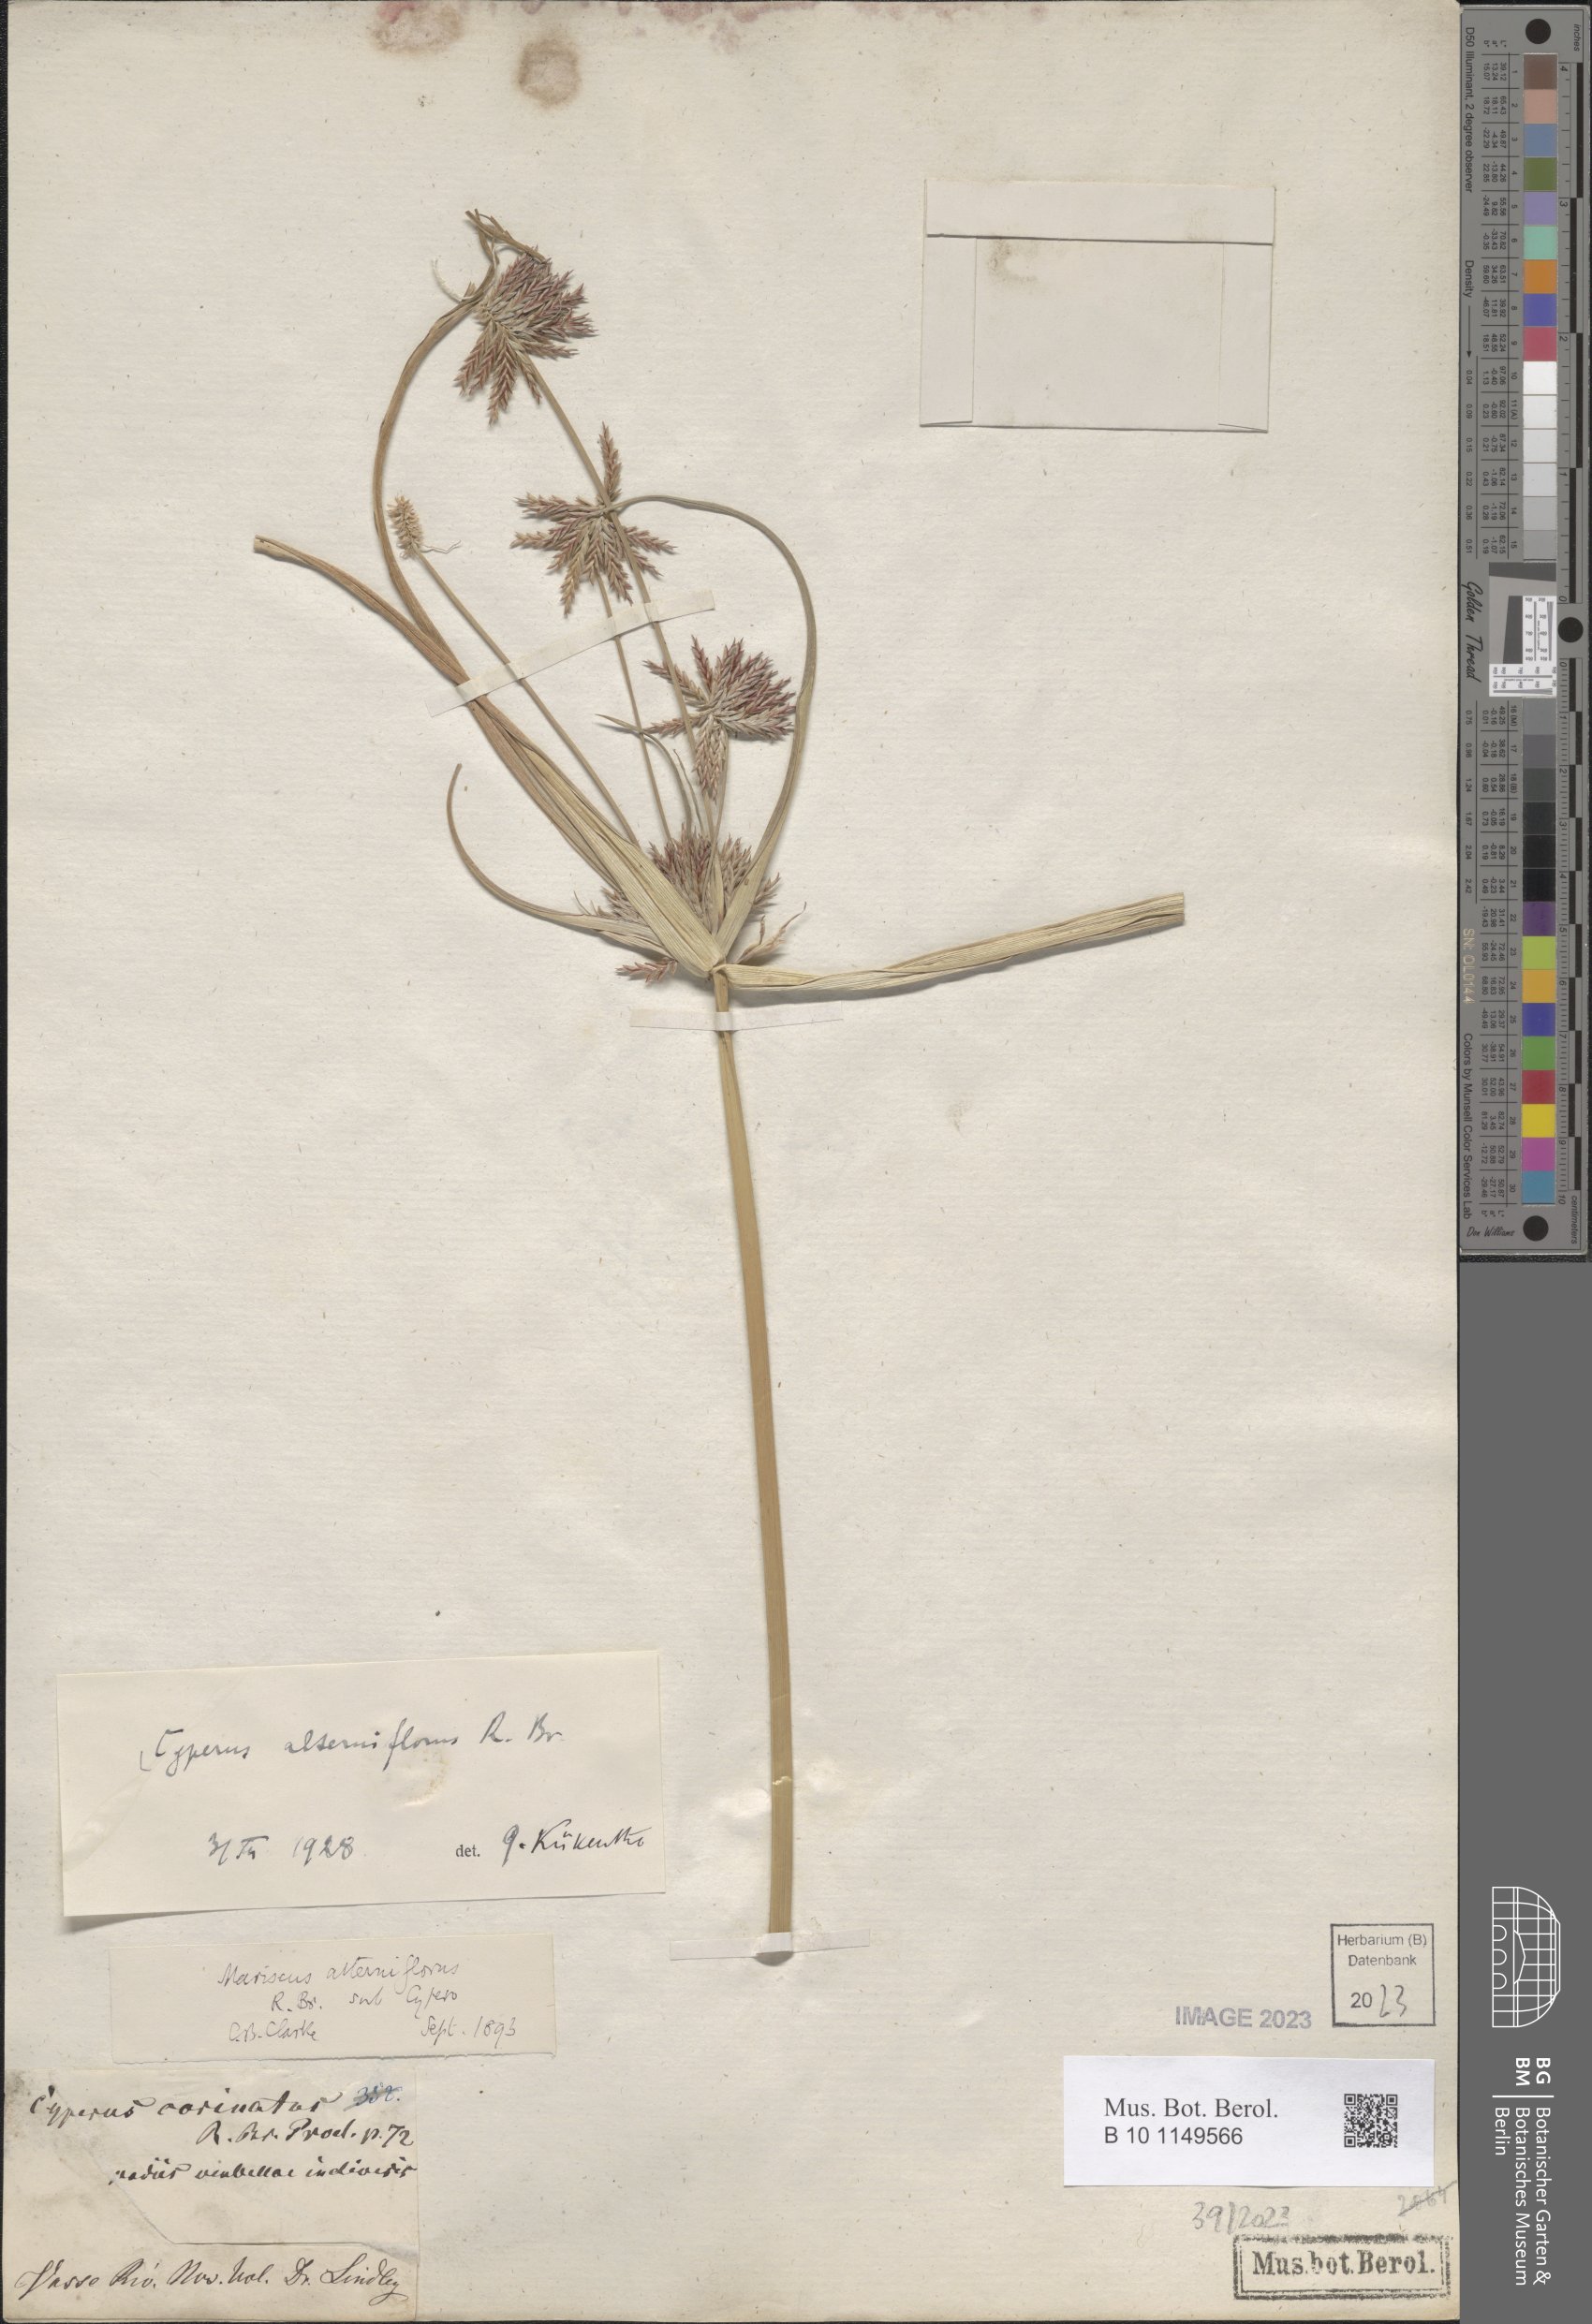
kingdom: Plantae
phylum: Tracheophyta
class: Liliopsida
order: Poales
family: Cyperaceae
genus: Cyperus
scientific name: Cyperus alterniflorus
